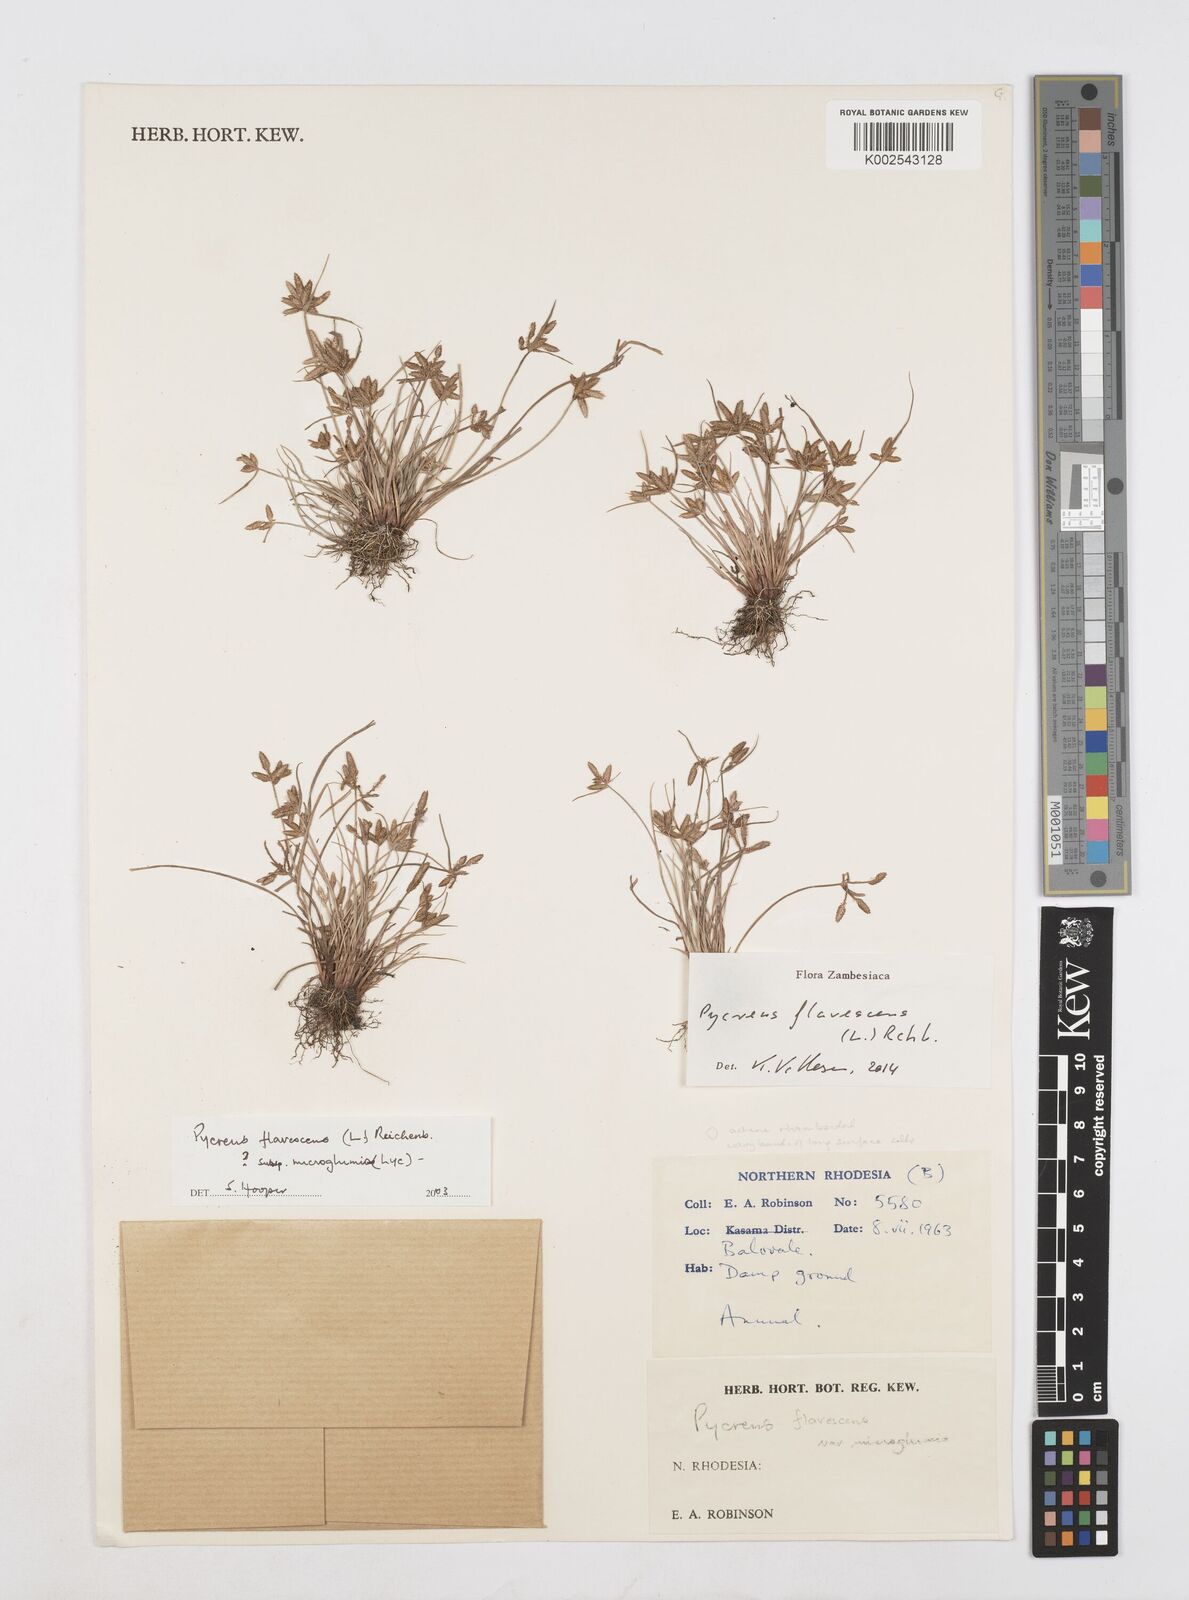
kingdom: Plantae
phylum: Tracheophyta
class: Liliopsida
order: Poales
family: Cyperaceae
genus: Cyperus
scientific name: Cyperus flavescens
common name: Yellow galingale
